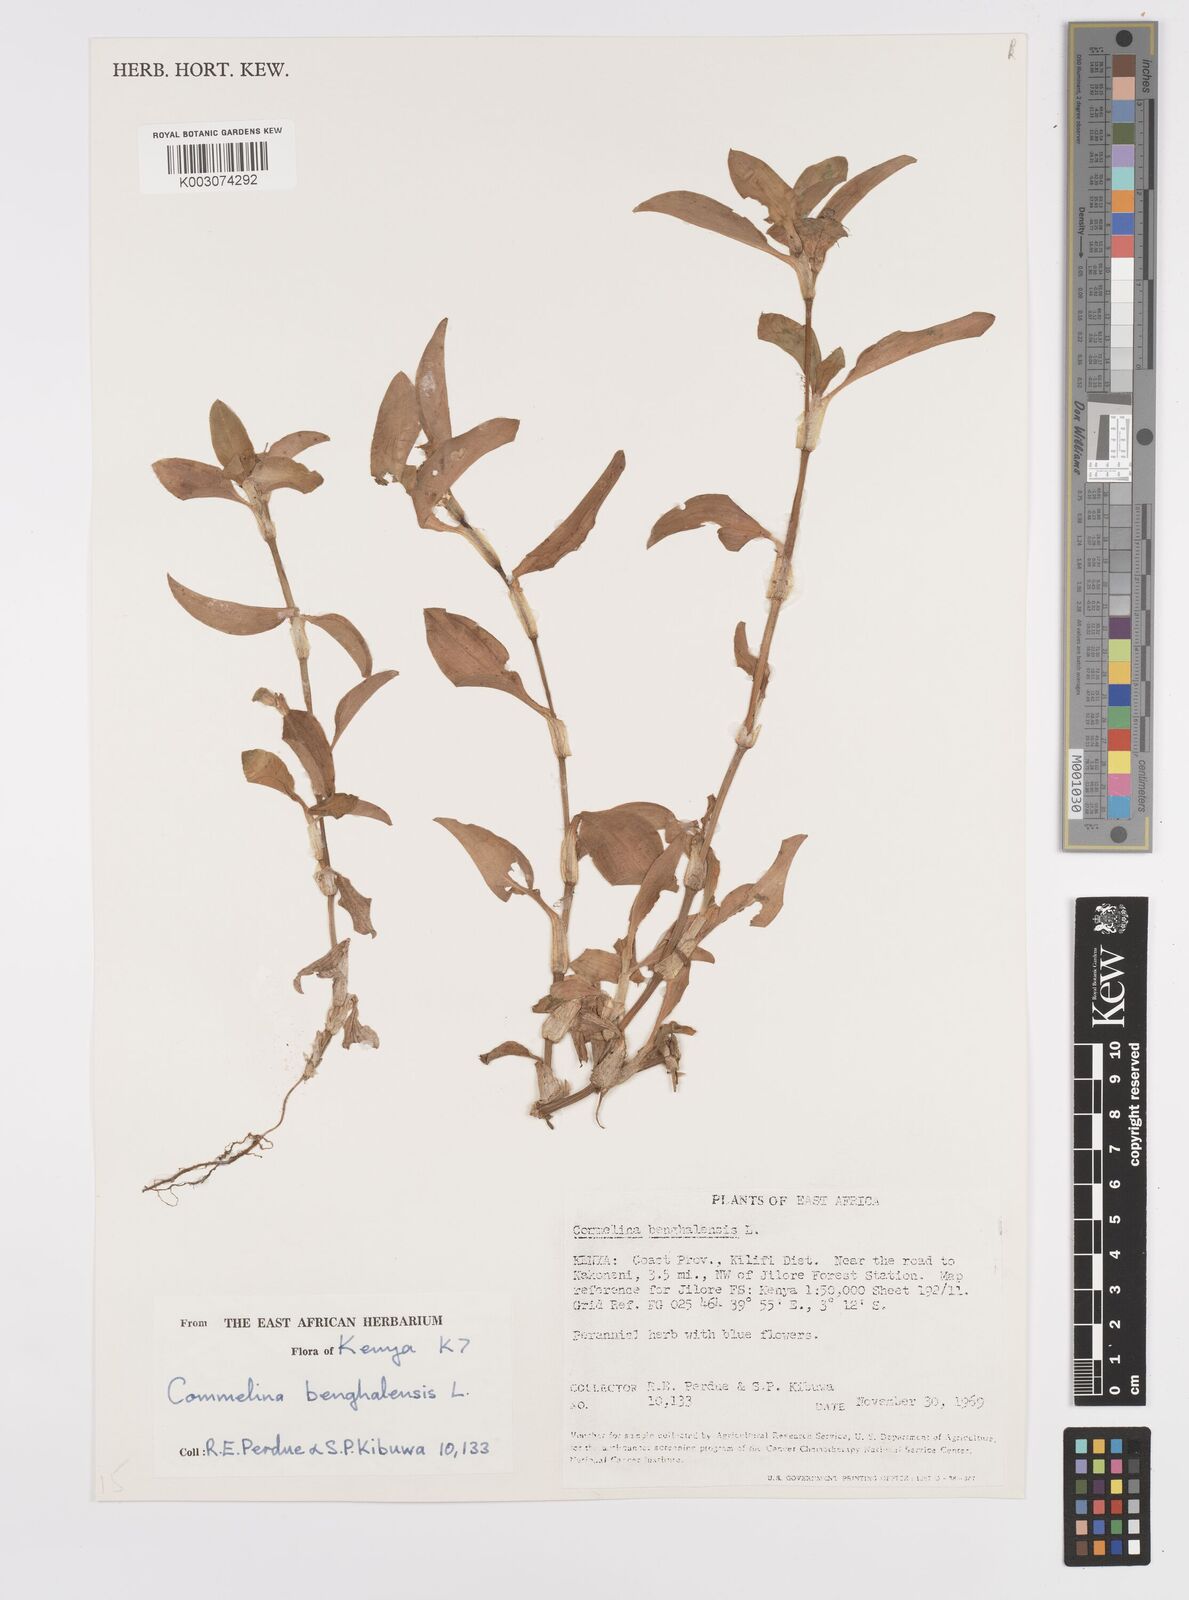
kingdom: Plantae
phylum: Tracheophyta
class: Liliopsida
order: Commelinales
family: Commelinaceae
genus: Commelina
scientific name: Commelina benghalensis
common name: Jio
